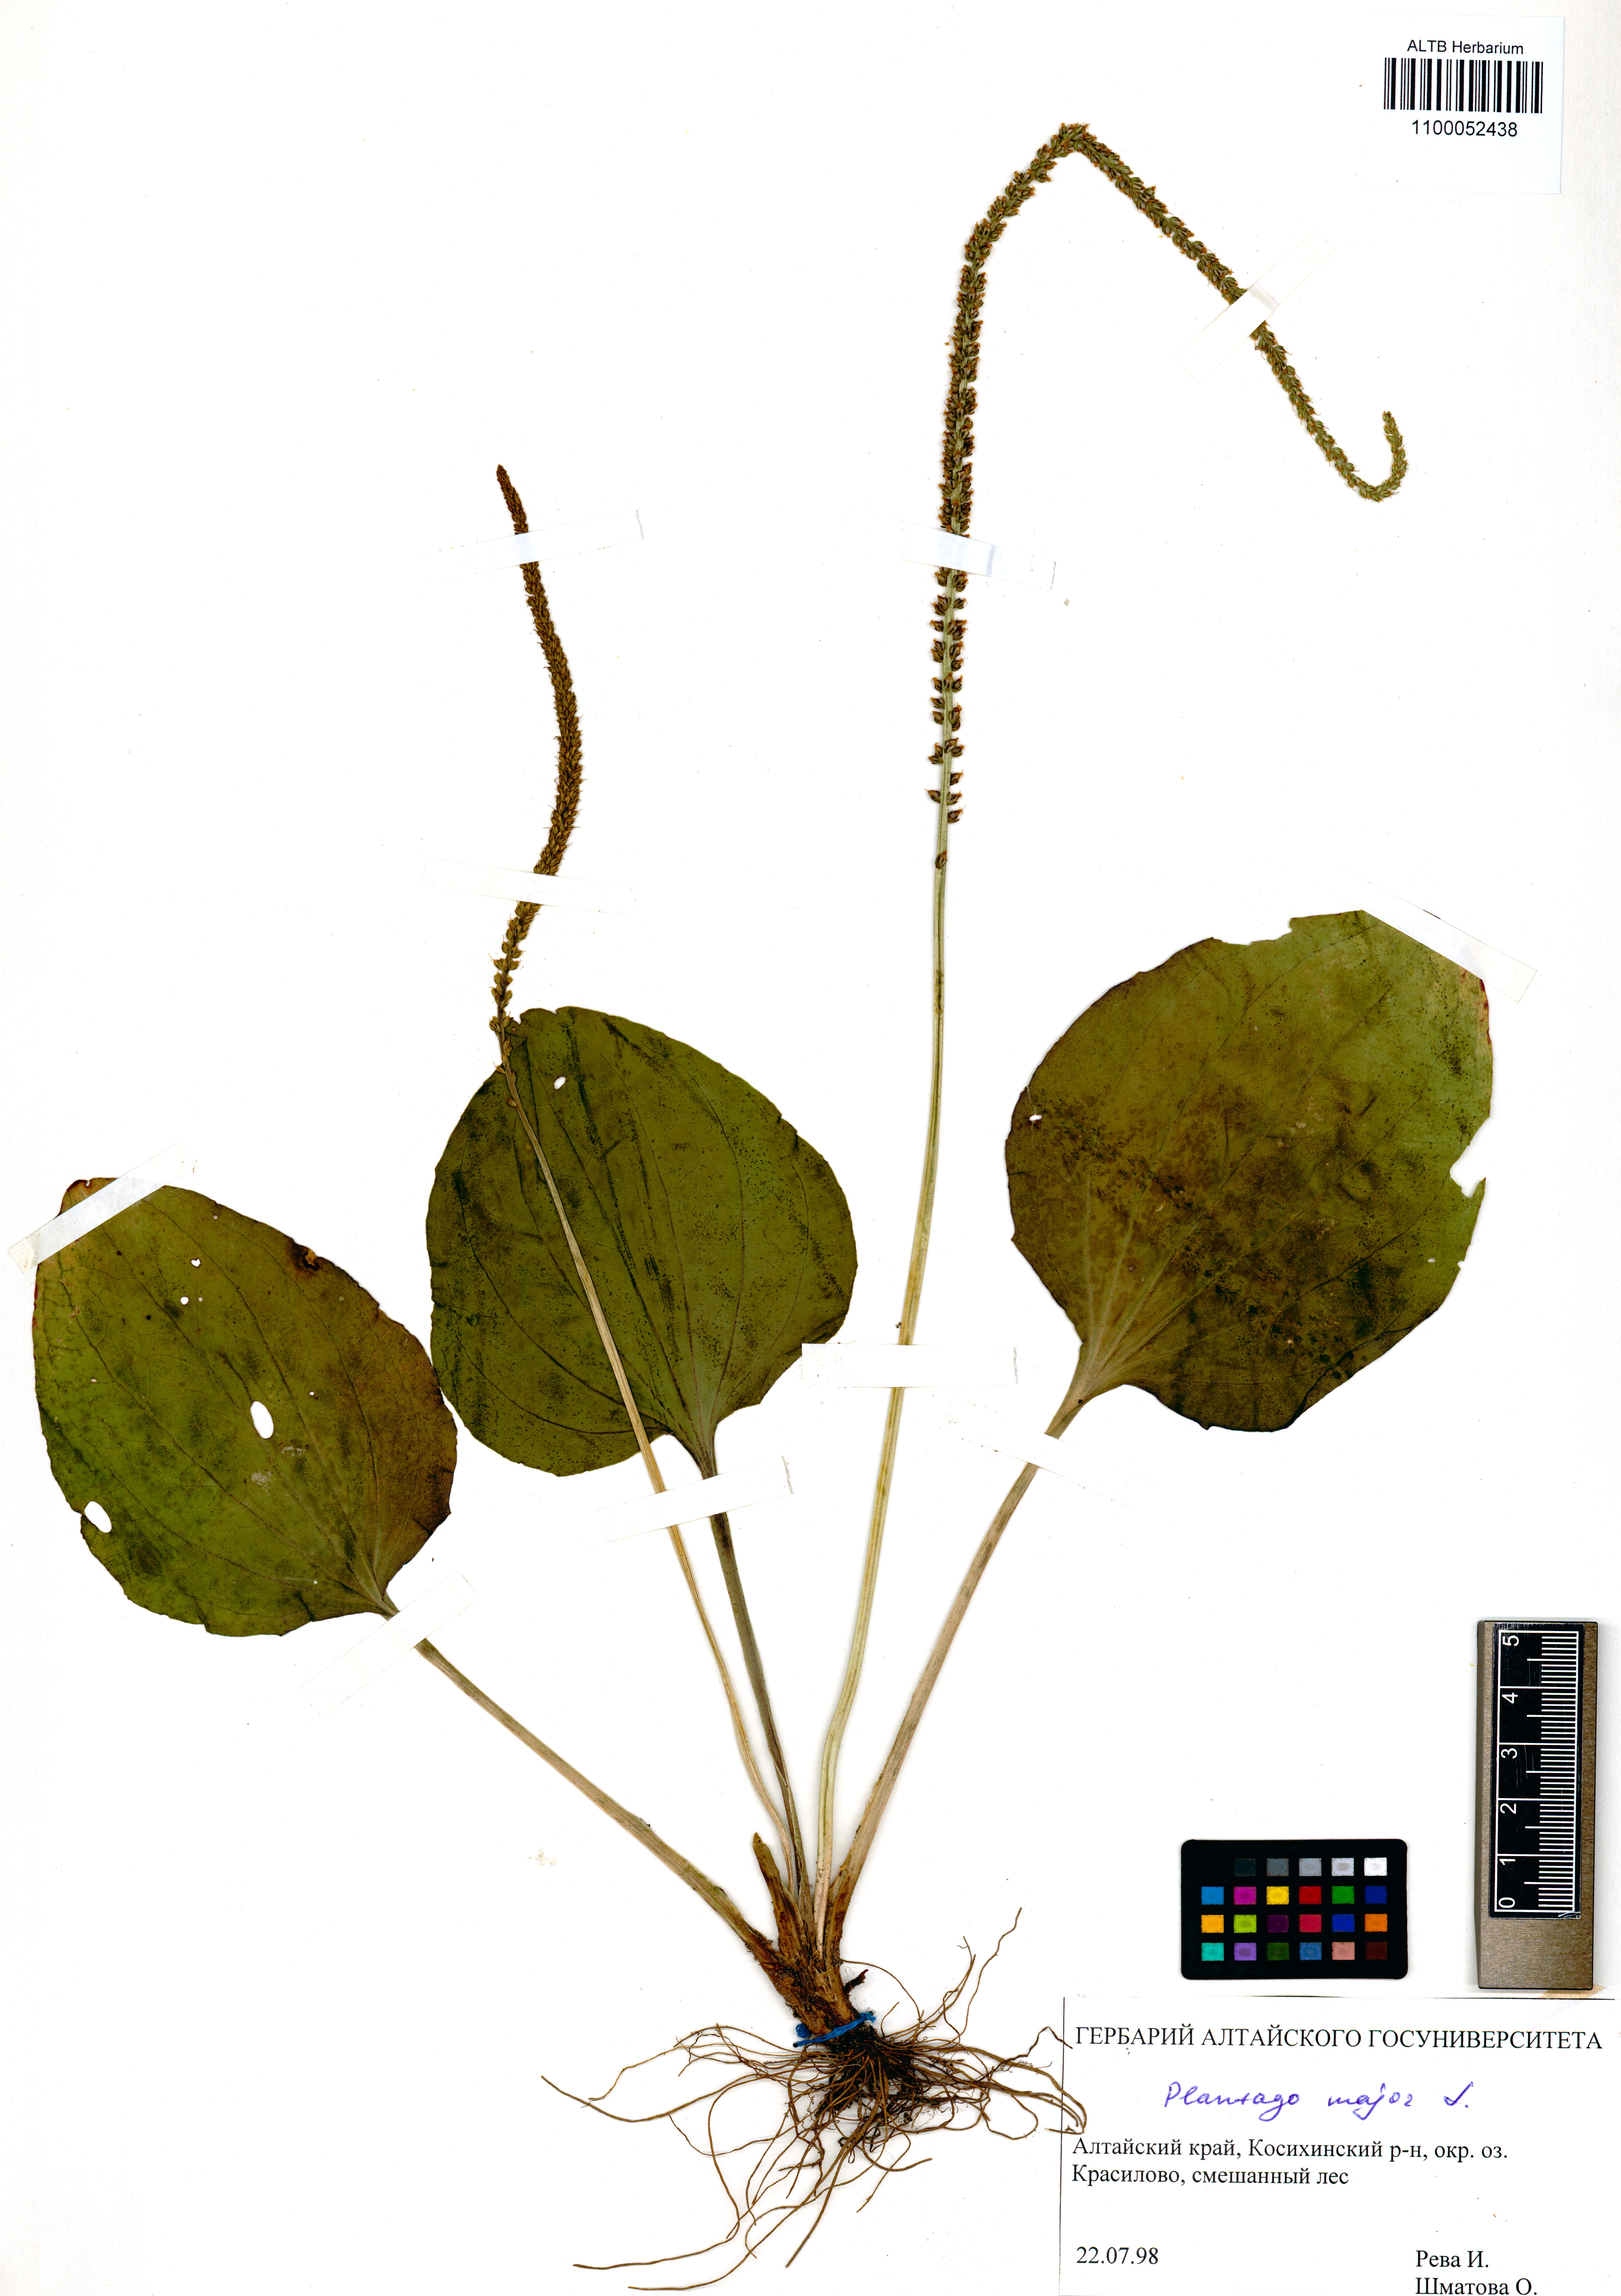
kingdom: Plantae
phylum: Tracheophyta
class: Magnoliopsida
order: Lamiales
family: Plantaginaceae
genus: Plantago
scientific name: Plantago major
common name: Common plantain
